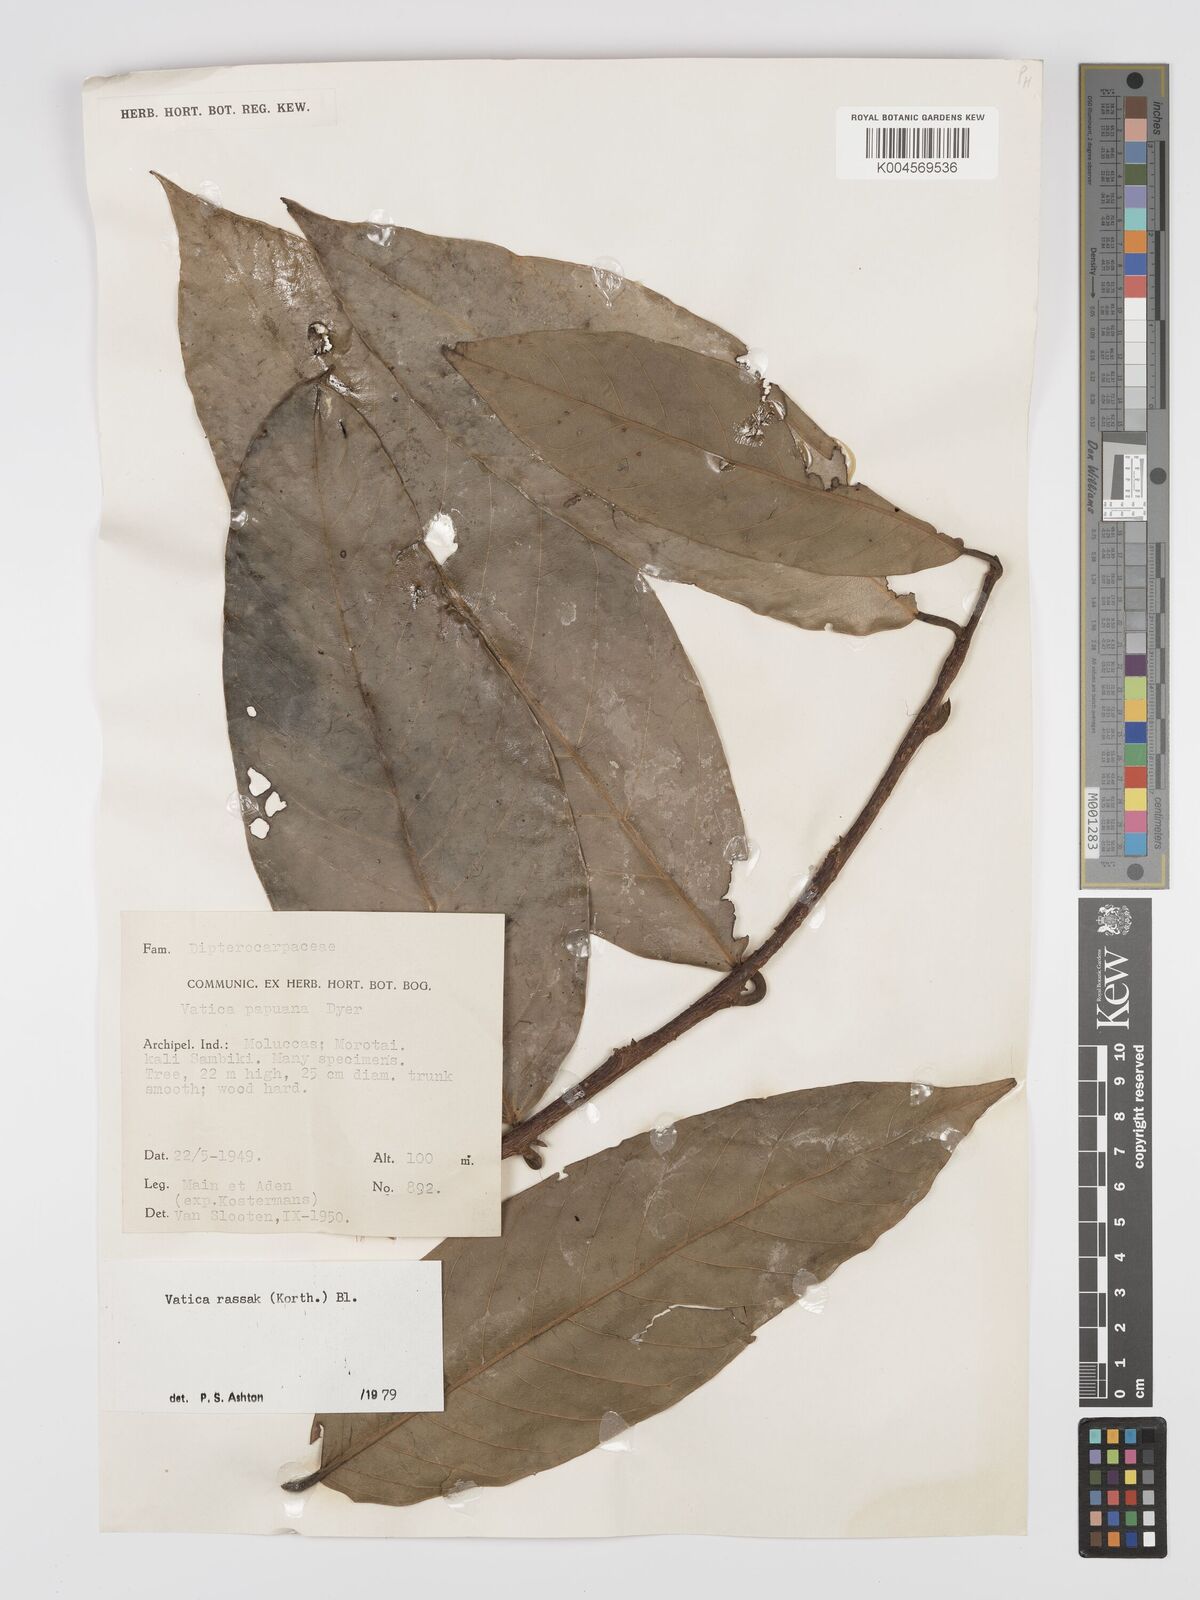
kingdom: Plantae
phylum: Tracheophyta
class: Magnoliopsida
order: Malvales
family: Dipterocarpaceae
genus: Vatica
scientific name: Vatica rassak
